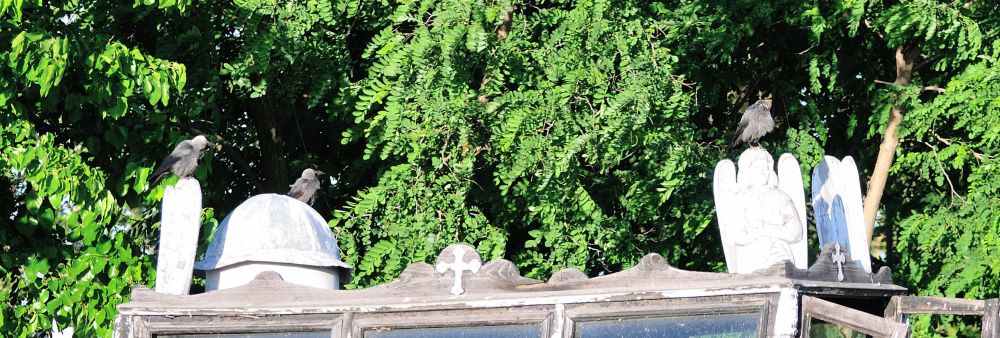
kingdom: Animalia
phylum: Chordata
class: Aves
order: Passeriformes
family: Corvidae
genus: Coloeus
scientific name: Coloeus monedula
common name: Western jackdaw
